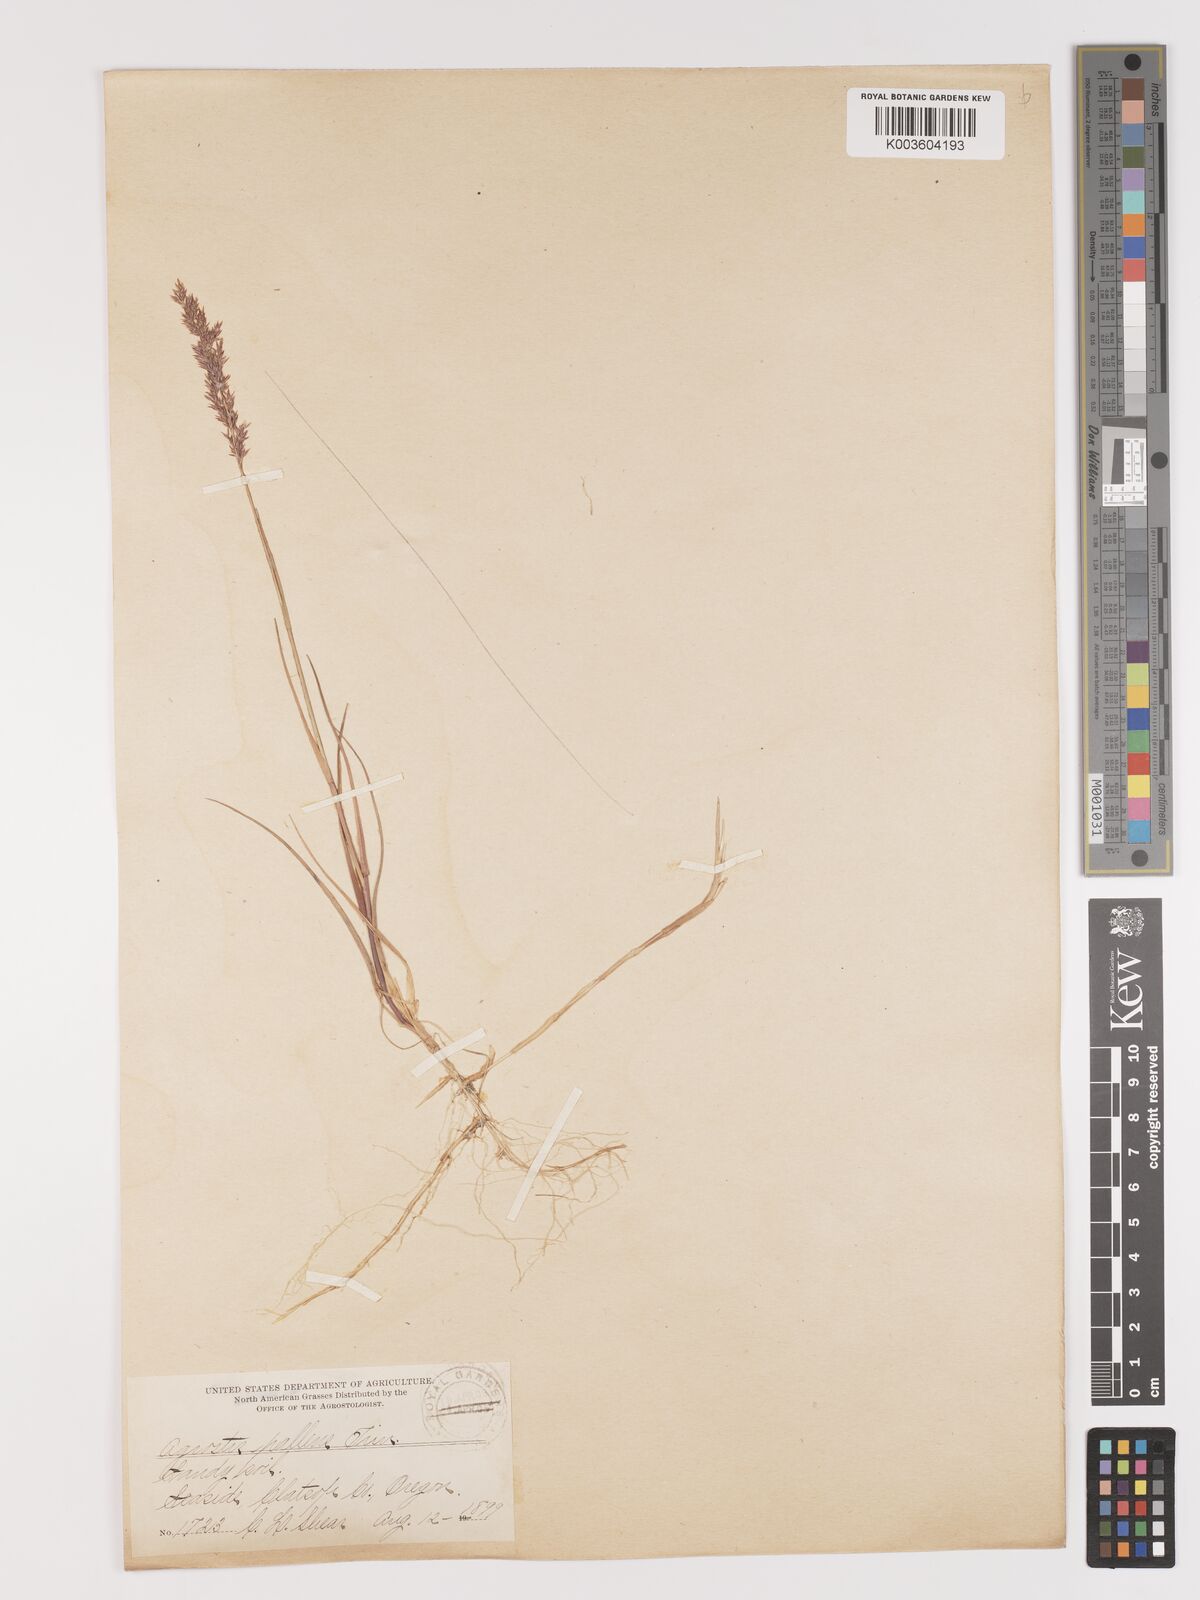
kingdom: Plantae
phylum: Tracheophyta
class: Liliopsida
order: Poales
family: Poaceae
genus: Agrostis
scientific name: Agrostis pallens
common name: Dune bent
